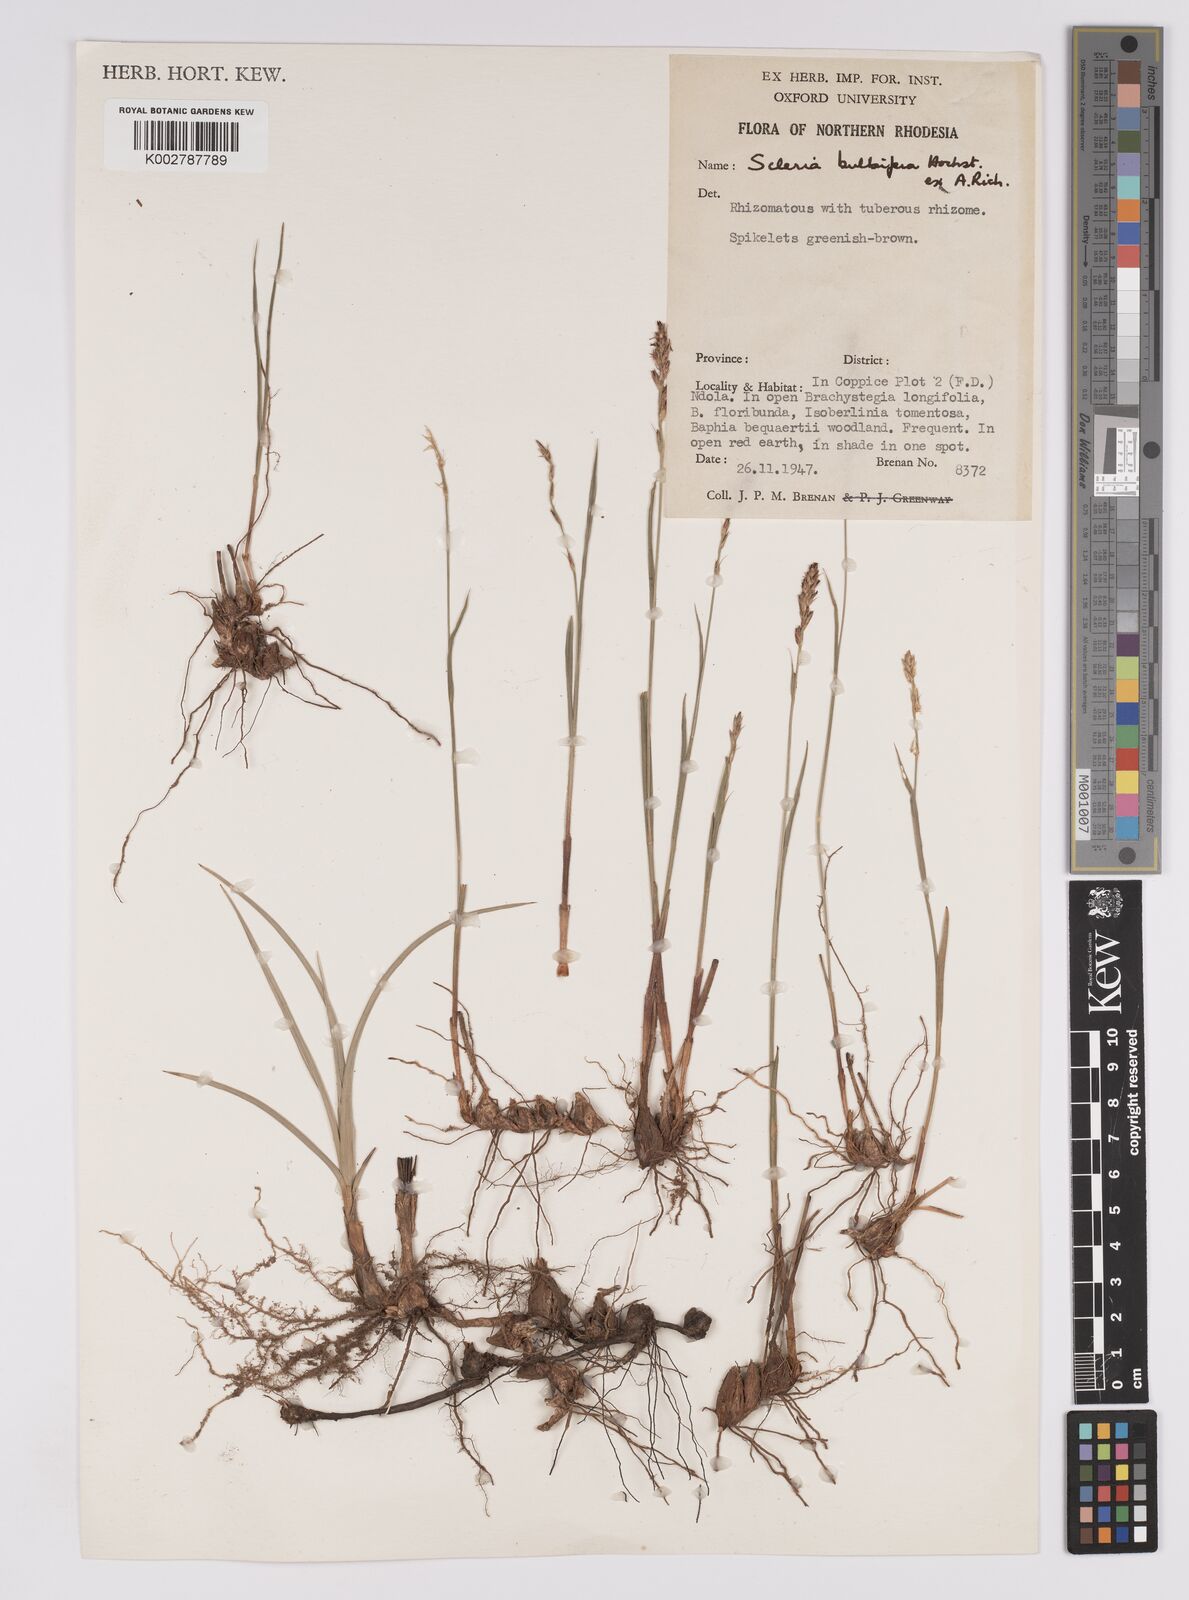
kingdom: Plantae
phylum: Tracheophyta
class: Liliopsida
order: Poales
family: Cyperaceae
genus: Scleria
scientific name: Scleria bulbifera
